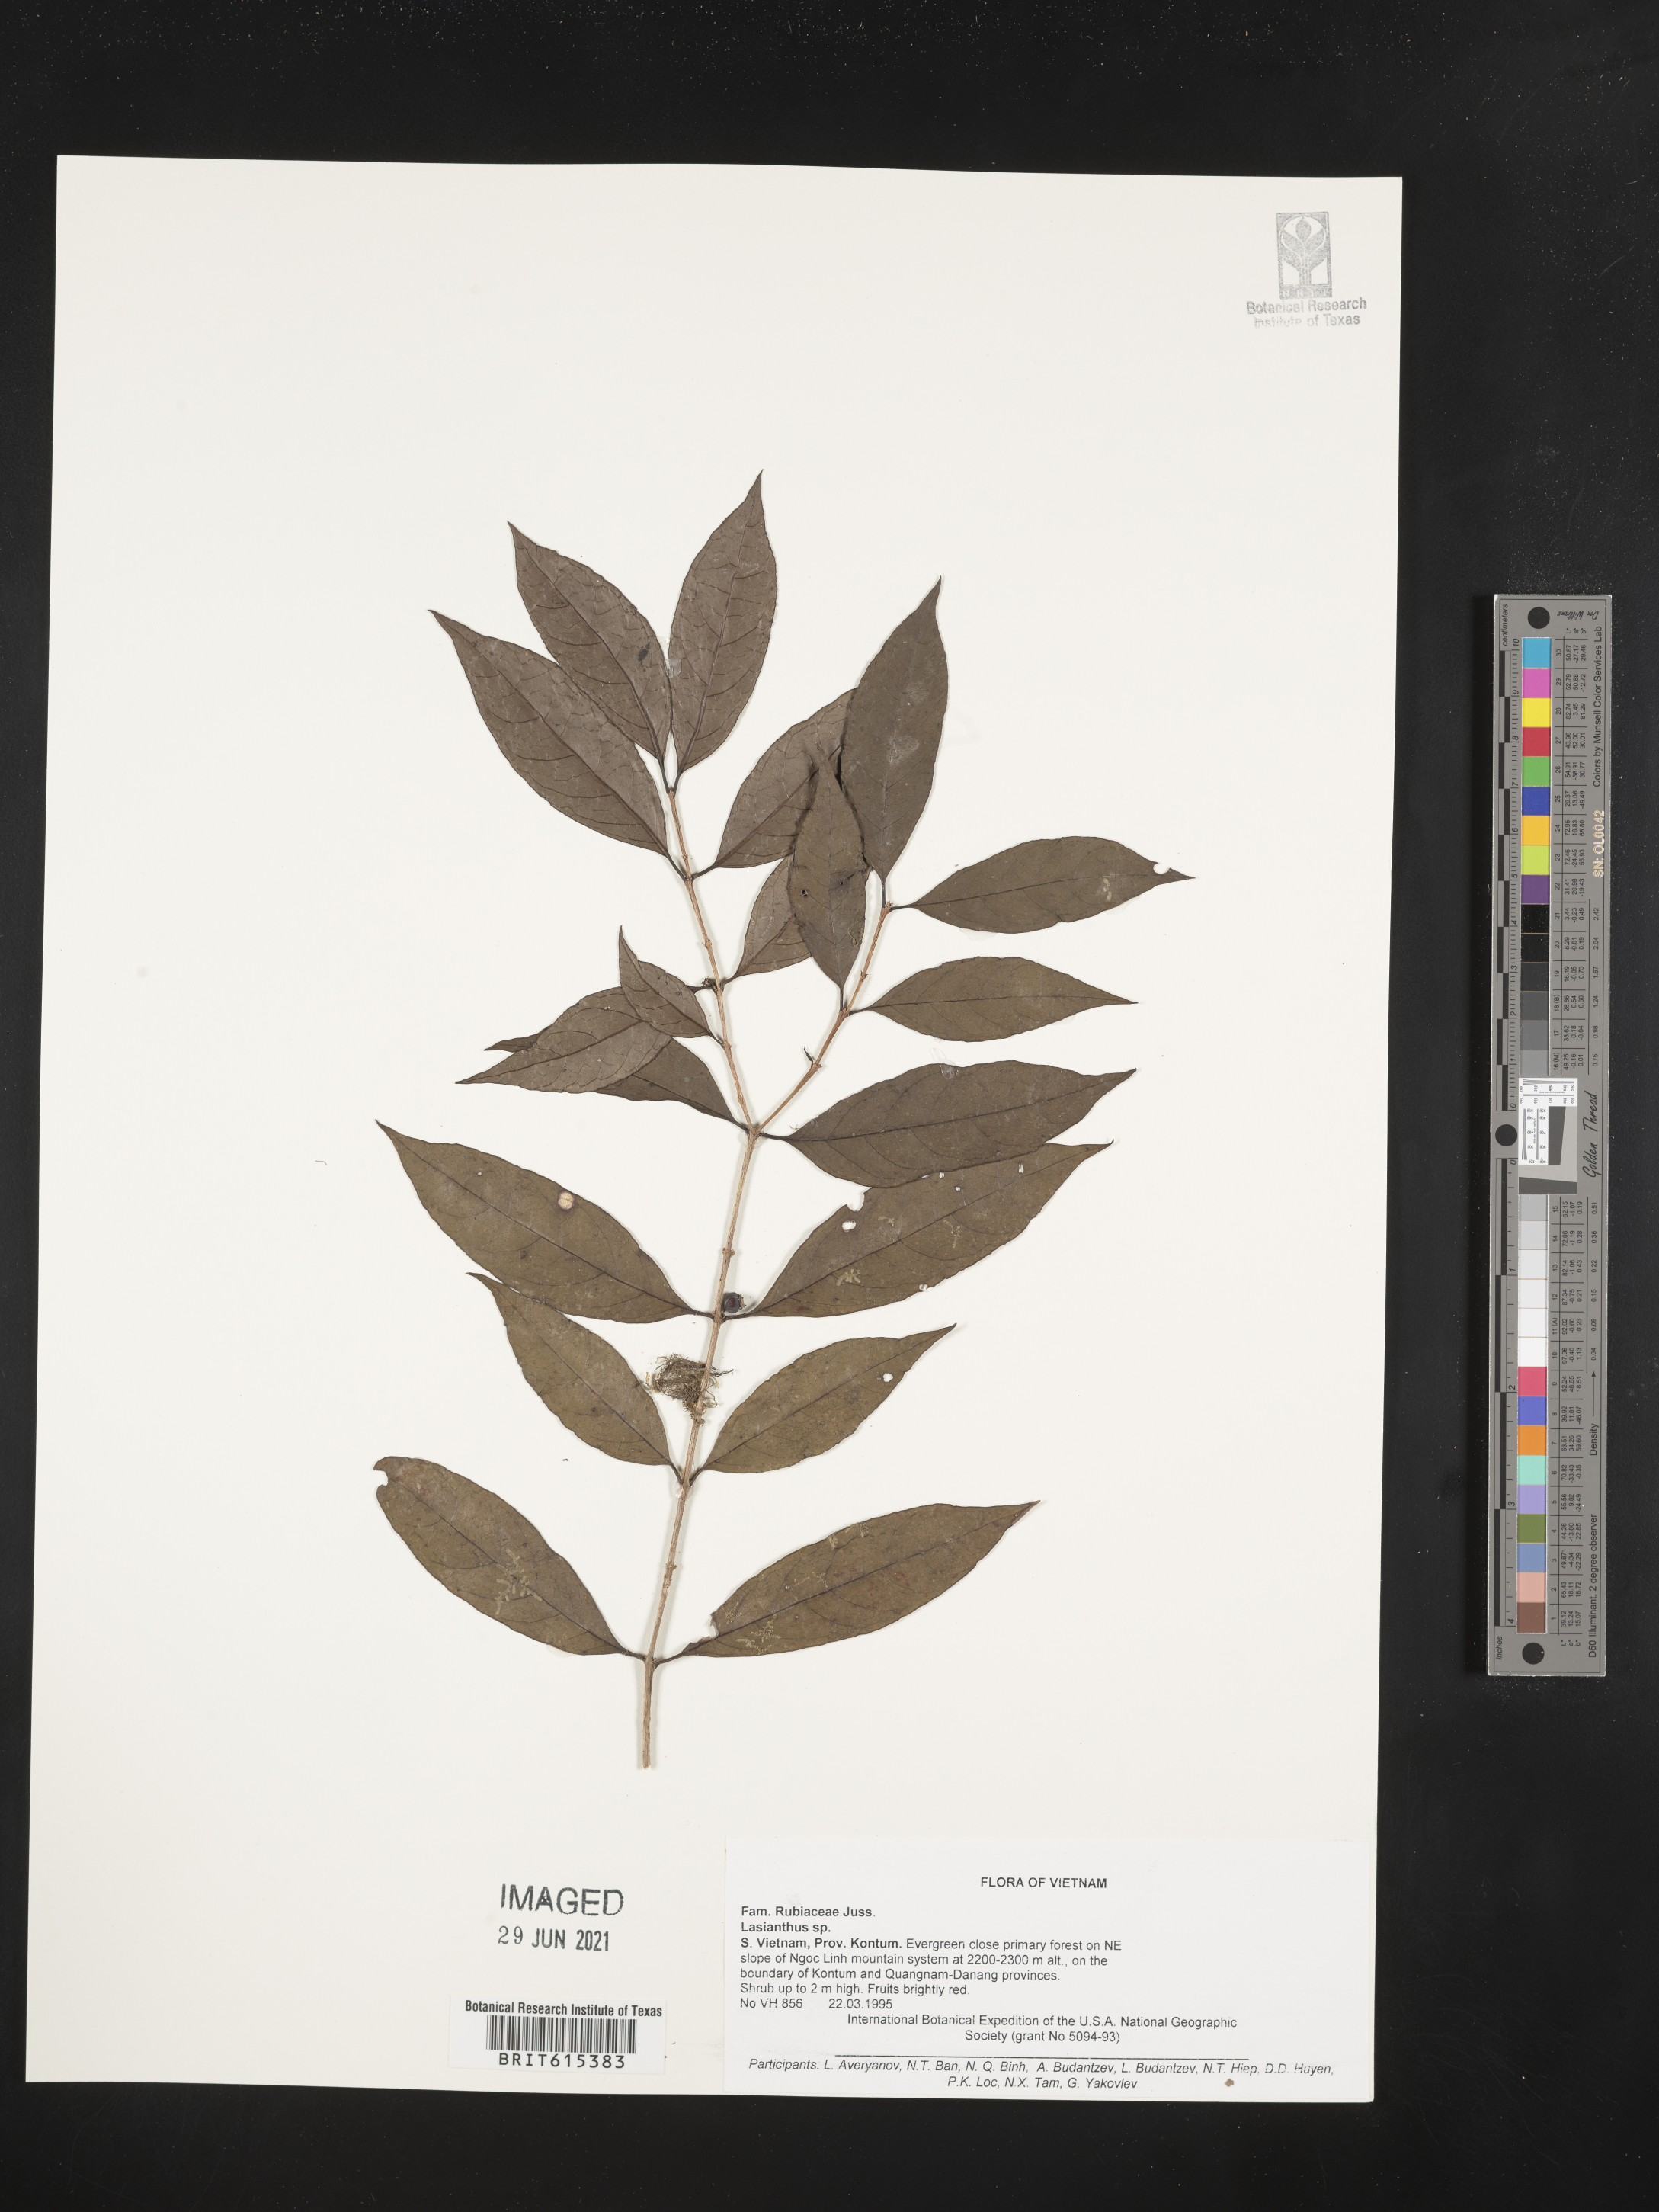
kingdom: Plantae
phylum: Tracheophyta
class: Magnoliopsida
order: Gentianales
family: Rubiaceae
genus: Lasianthus
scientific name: Lasianthus
